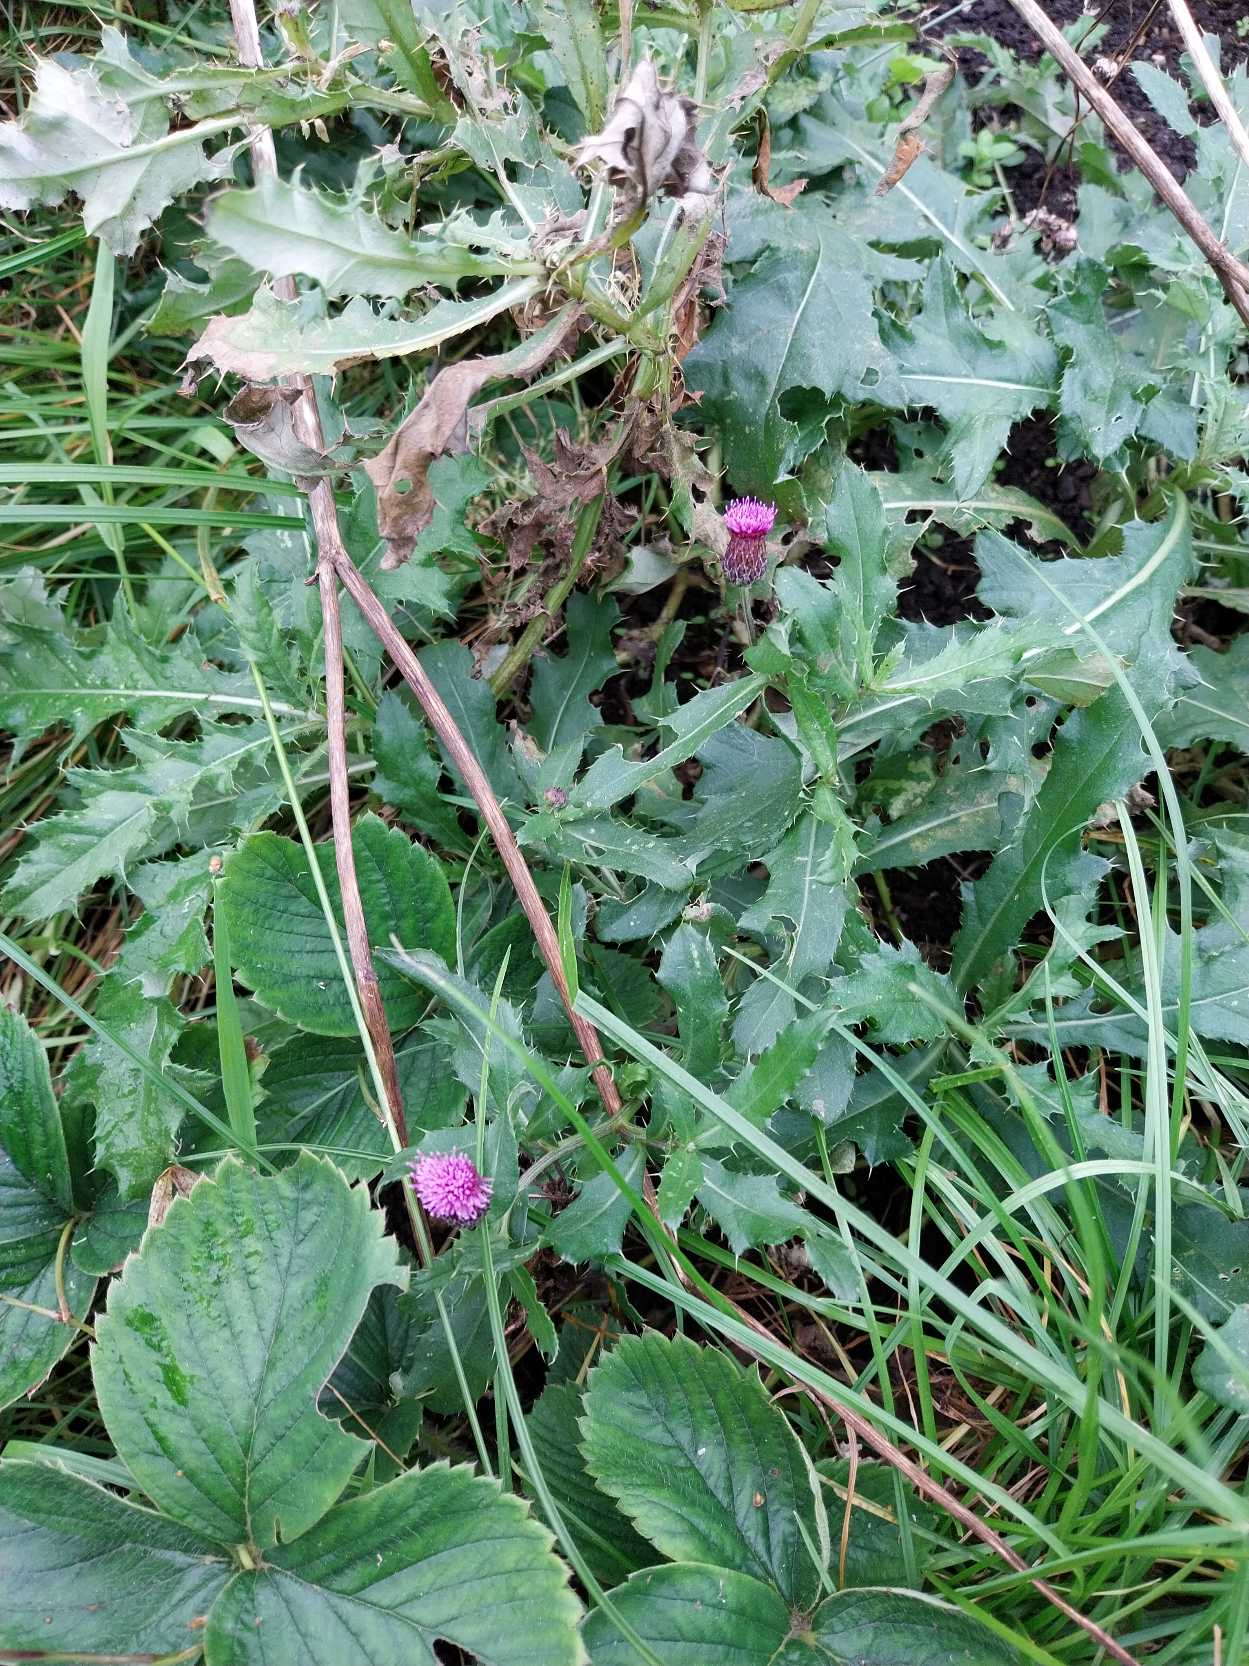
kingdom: Plantae
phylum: Tracheophyta
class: Magnoliopsida
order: Asterales
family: Asteraceae
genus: Cirsium
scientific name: Cirsium arvense
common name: Ager-tidsel
